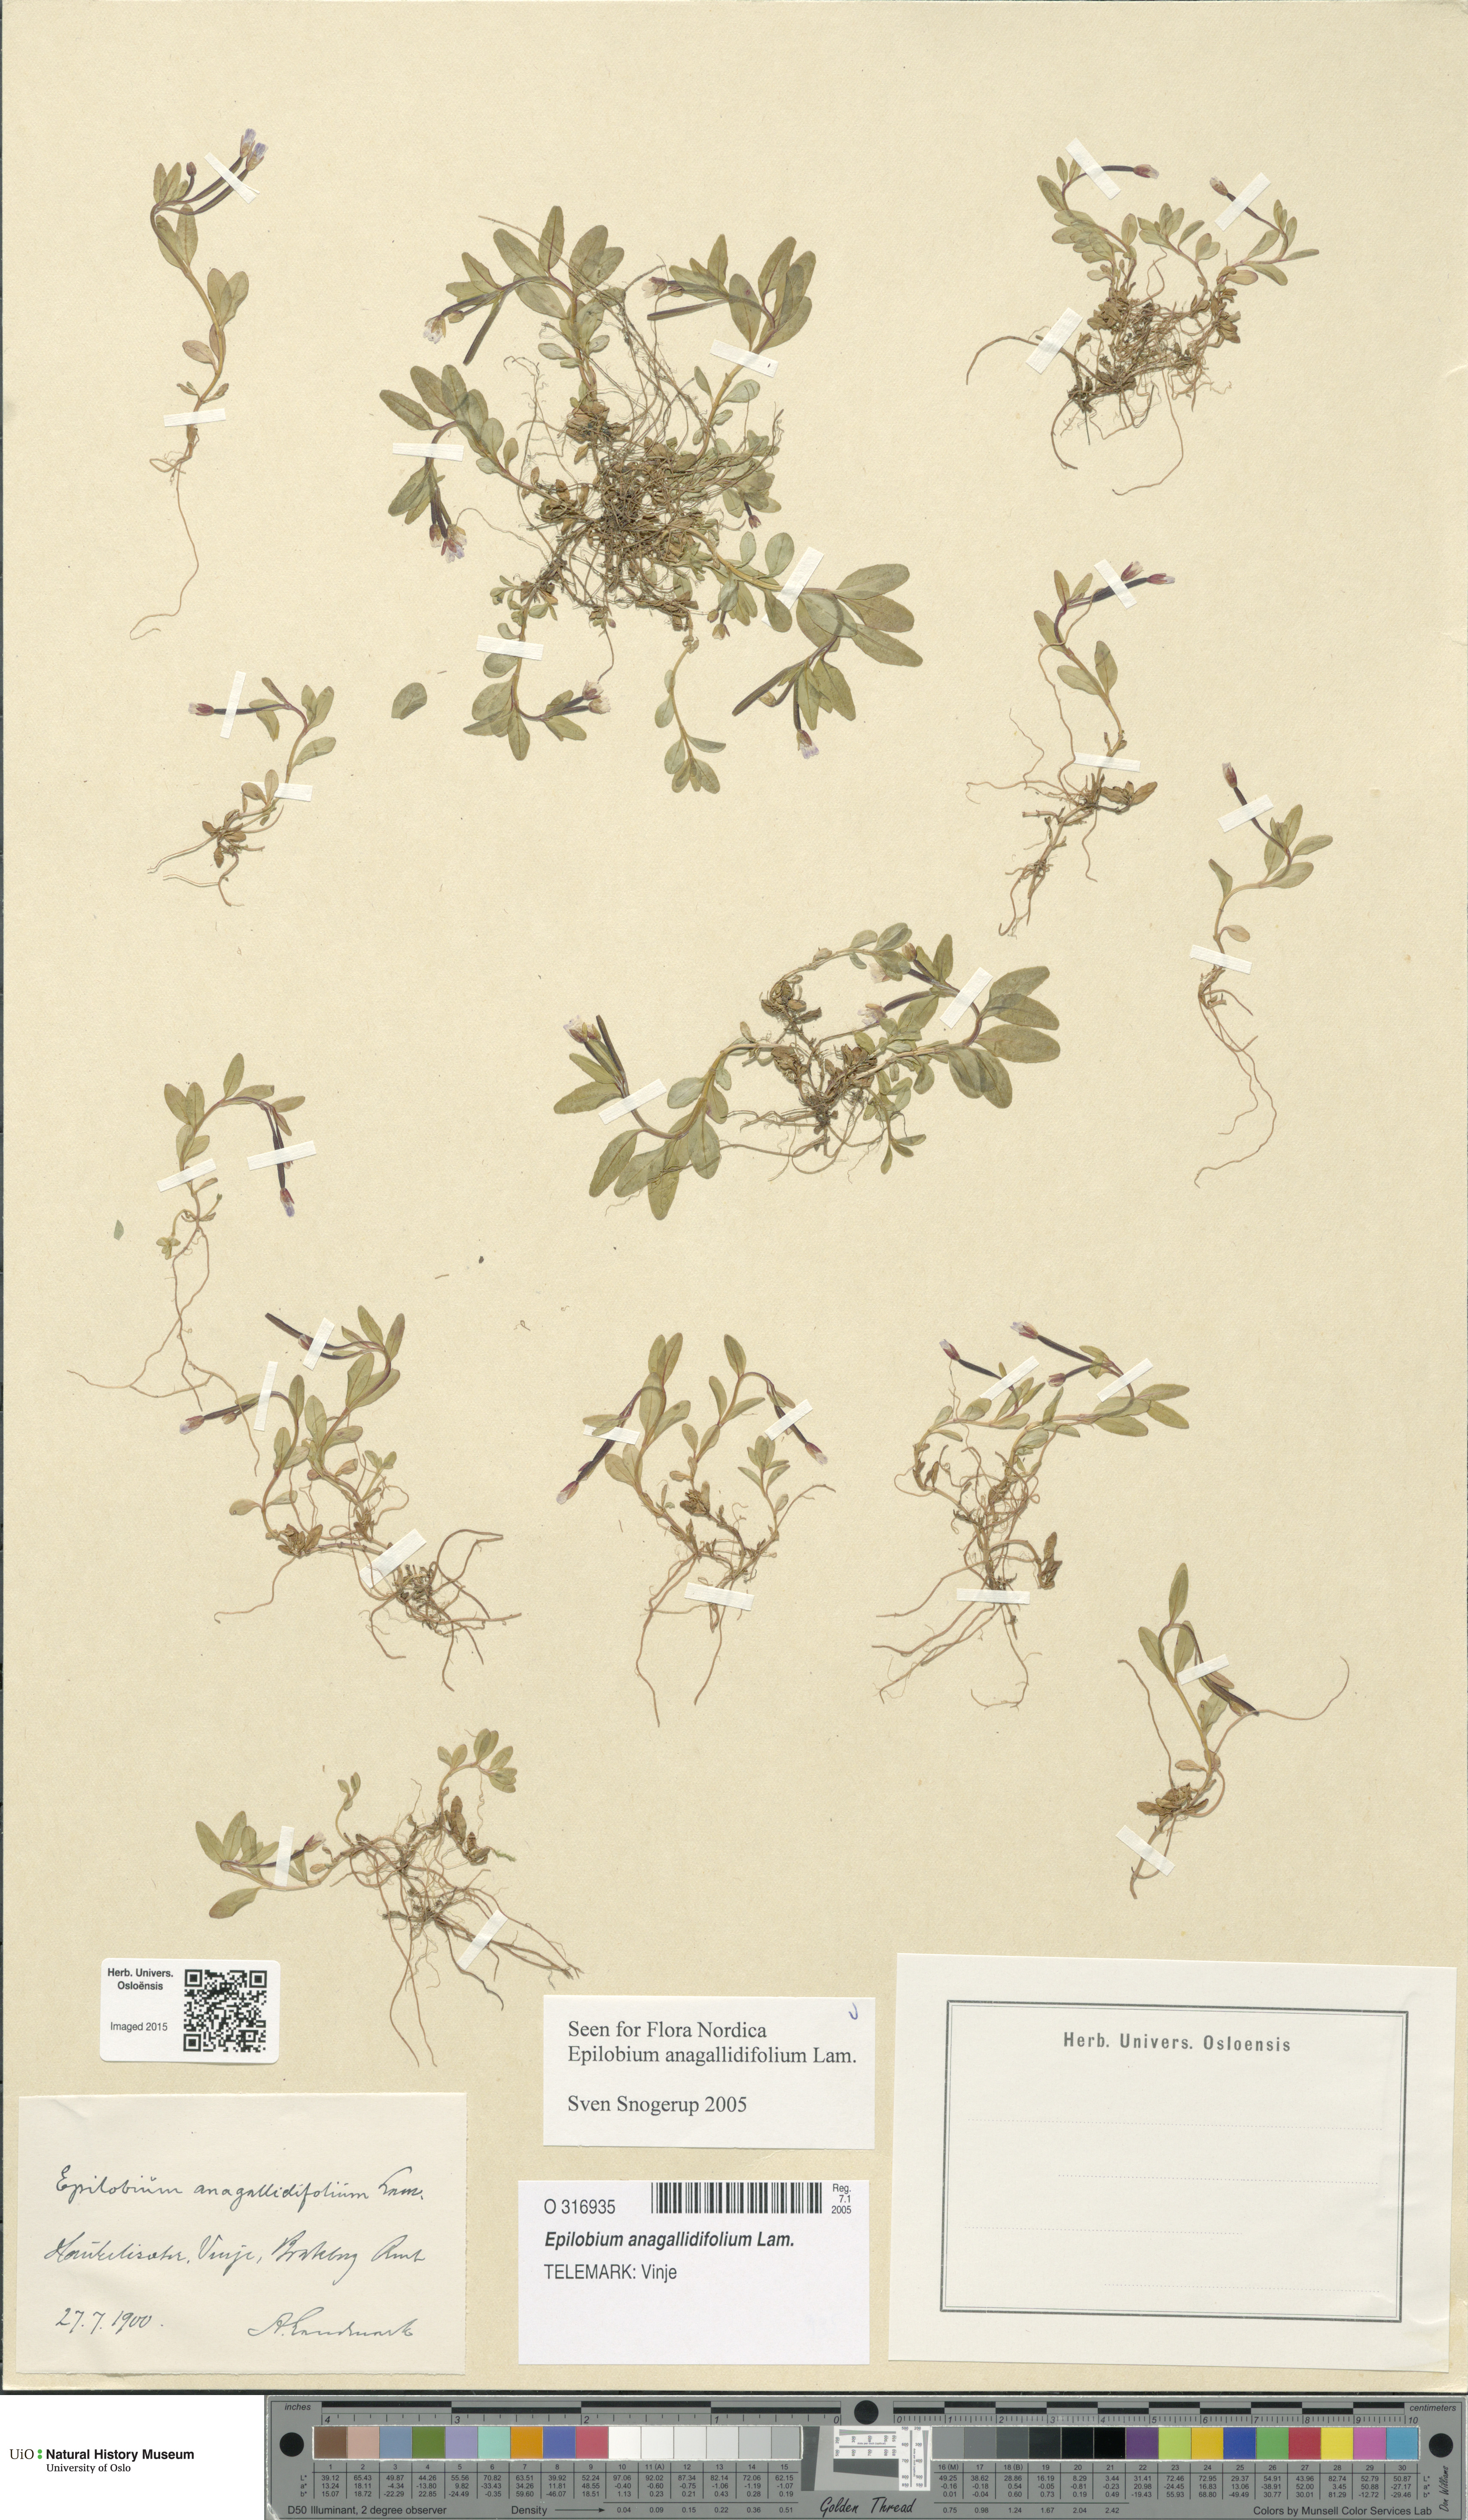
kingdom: Plantae
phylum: Tracheophyta
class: Magnoliopsida
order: Myrtales
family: Onagraceae
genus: Epilobium
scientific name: Epilobium anagallidifolium
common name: Alpine willowherb
